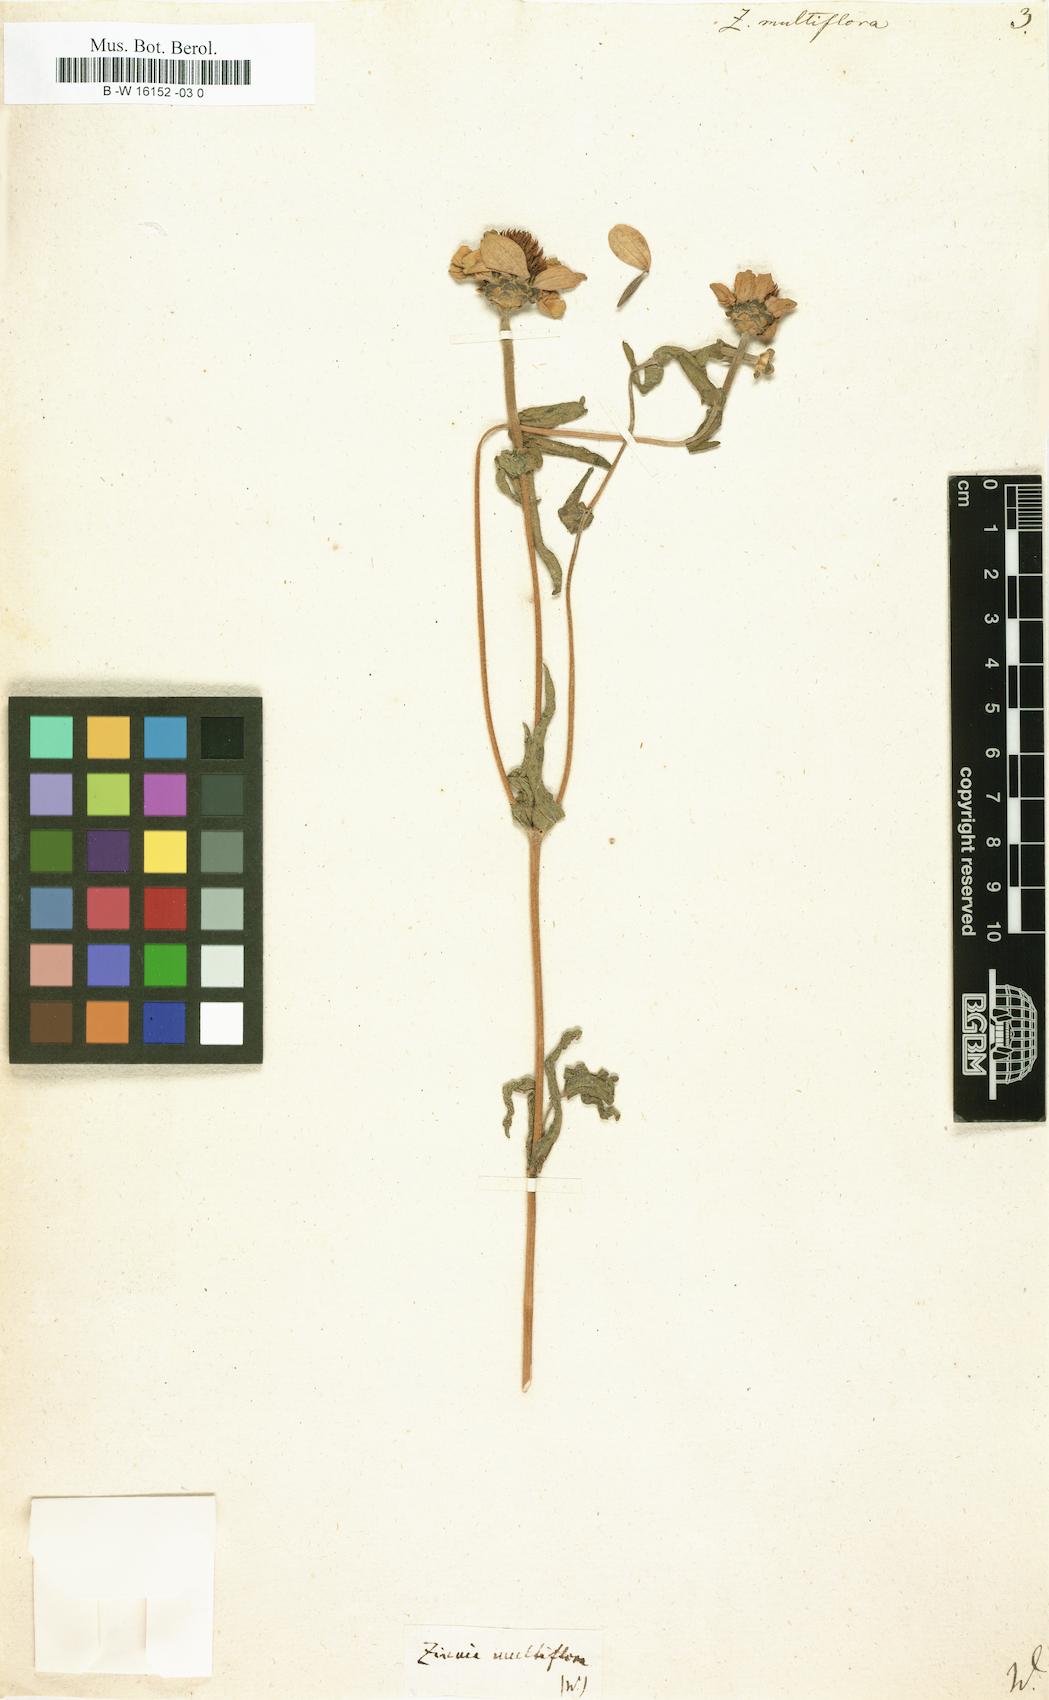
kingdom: Plantae
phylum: Tracheophyta
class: Magnoliopsida
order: Asterales
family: Asteraceae
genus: Zinnia
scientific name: Zinnia peruviana
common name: Peruvian zinnia
